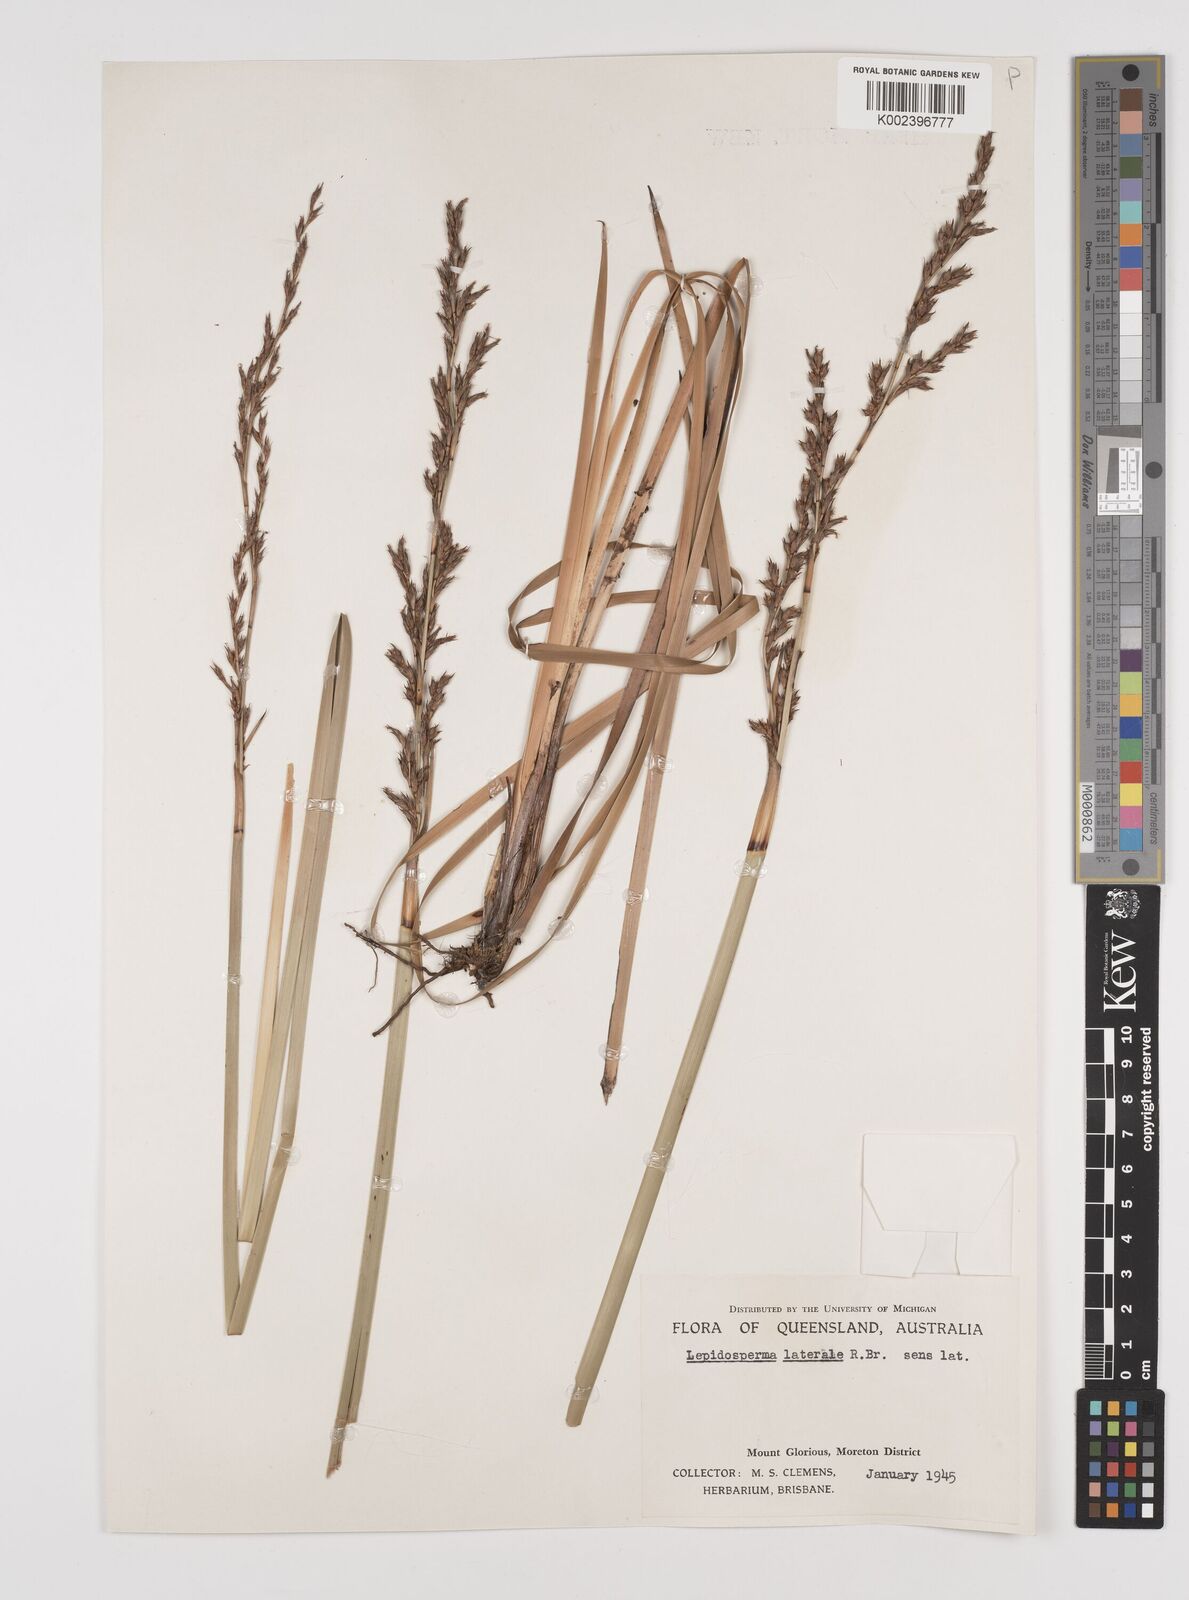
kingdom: Plantae
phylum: Tracheophyta
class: Liliopsida
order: Poales
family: Cyperaceae
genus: Lepidosperma
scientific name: Lepidosperma laterale
